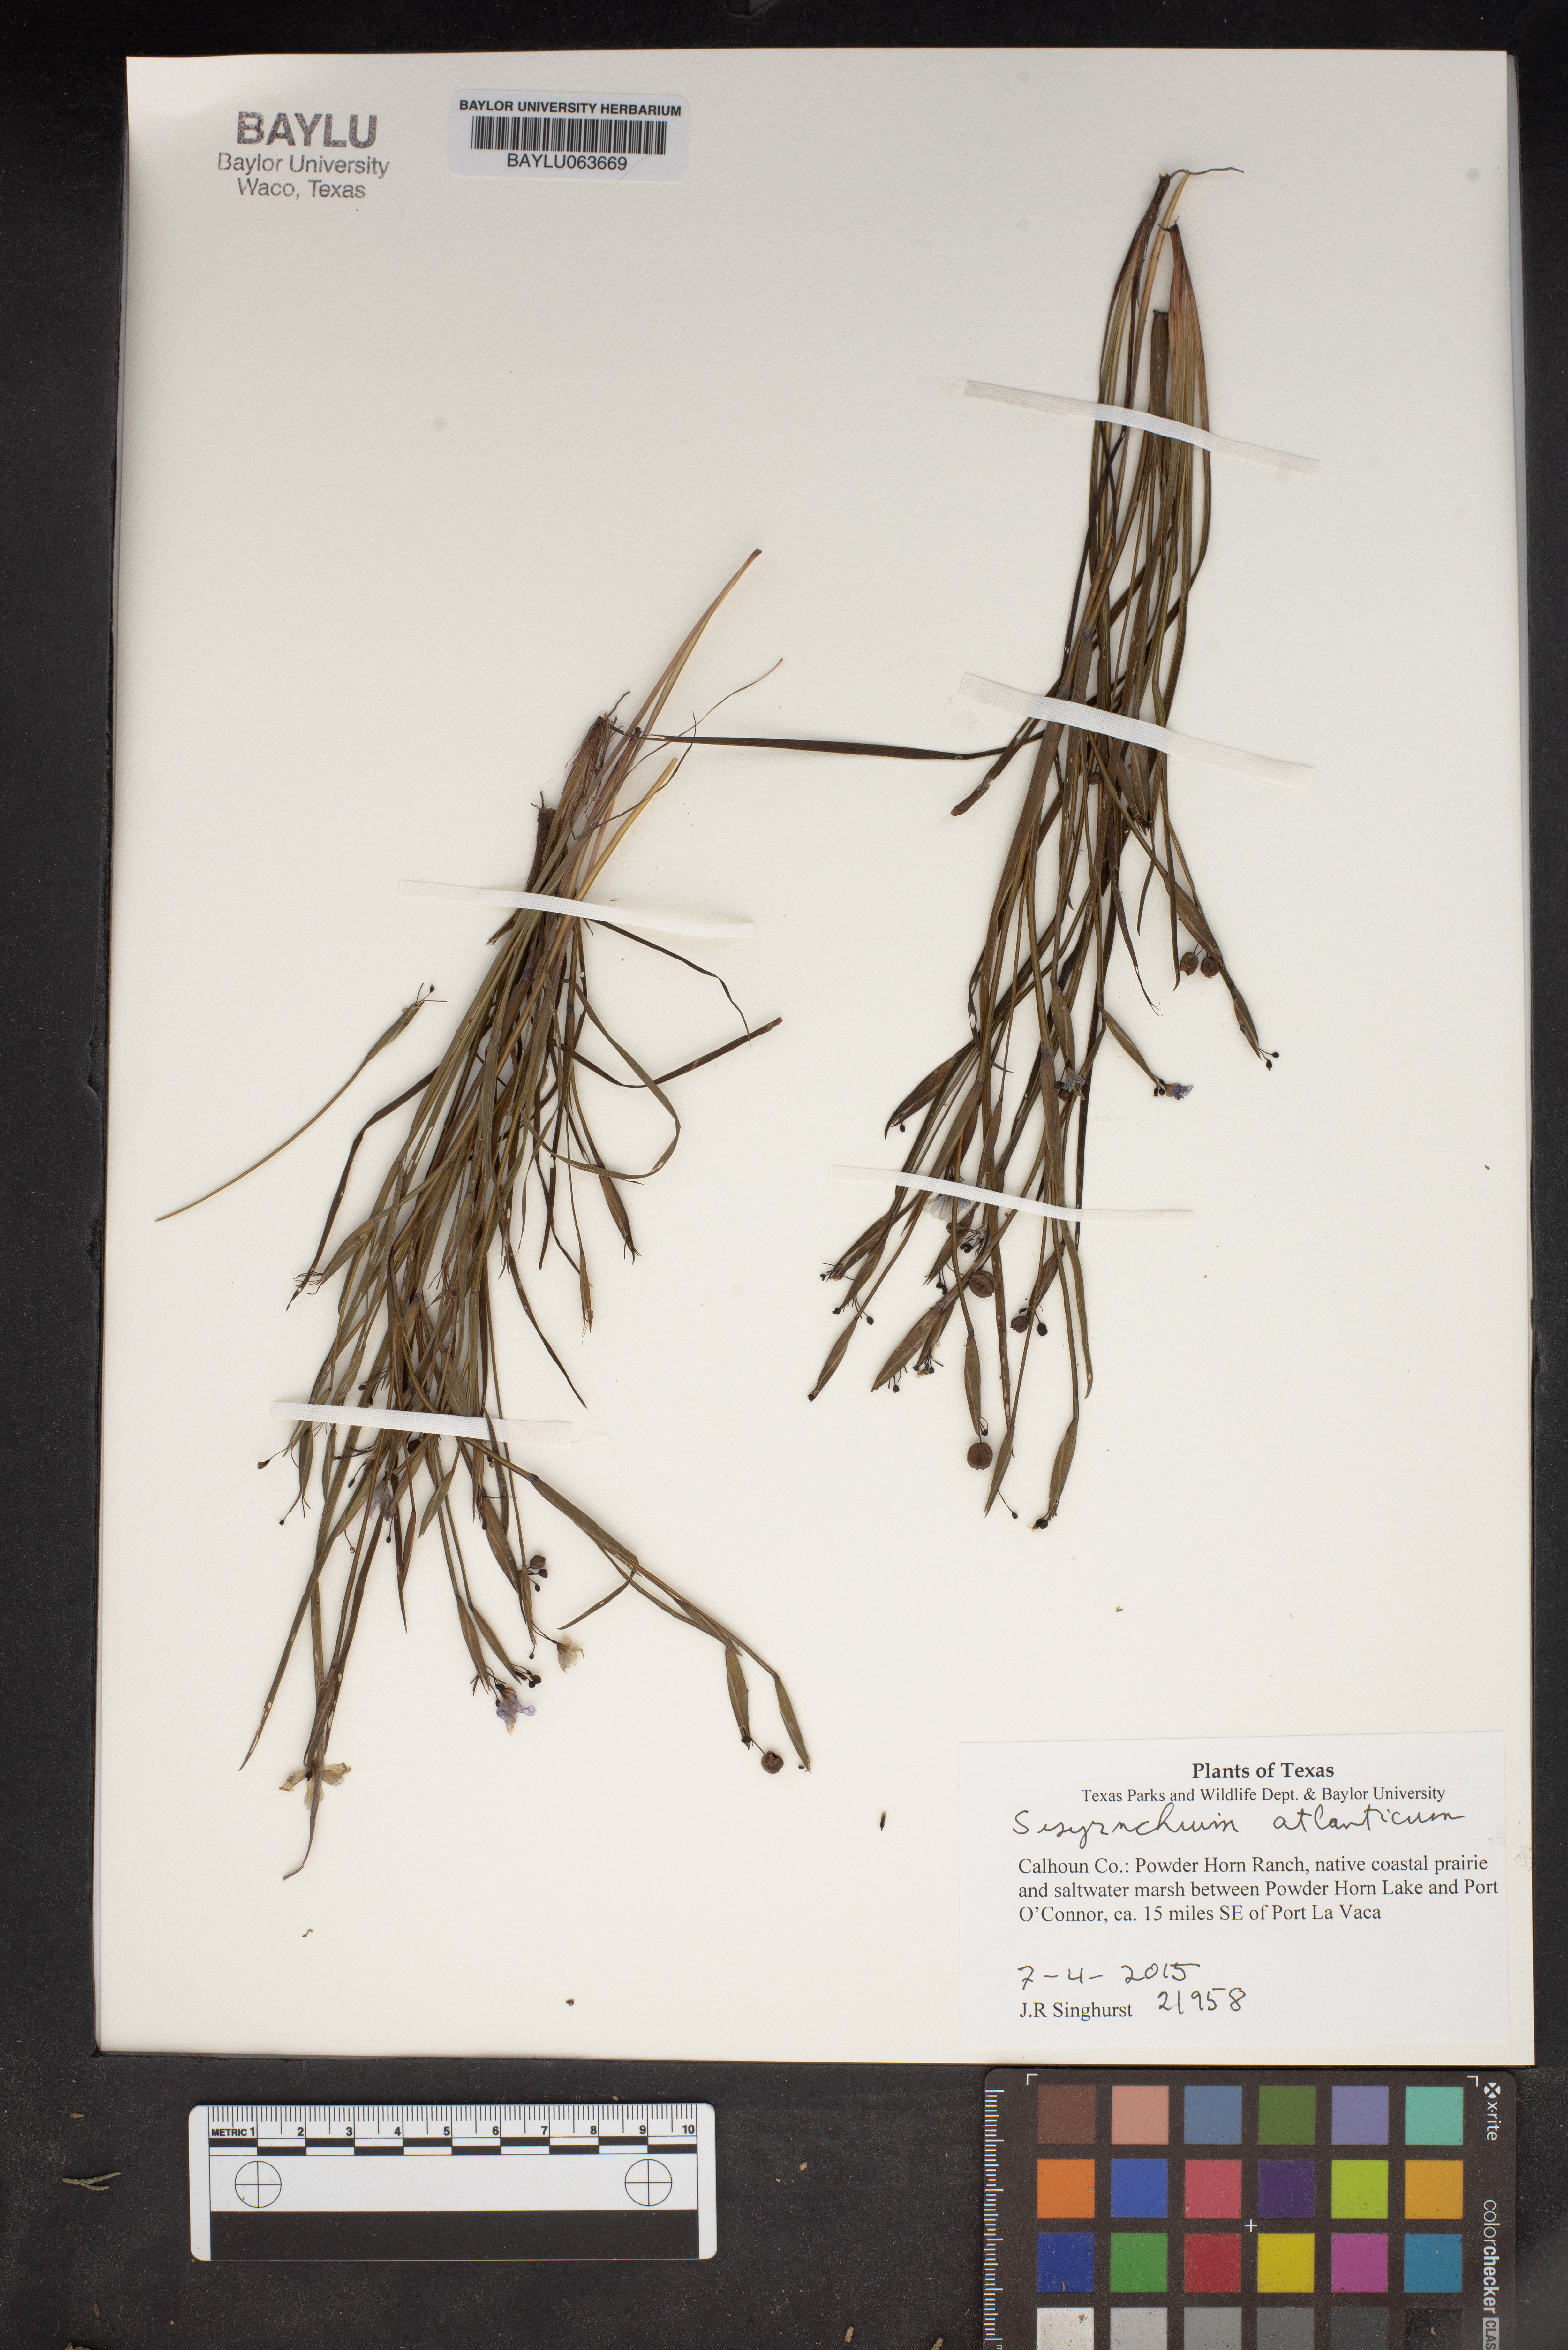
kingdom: Plantae
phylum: Tracheophyta
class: Liliopsida
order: Asparagales
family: Iridaceae
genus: Sisyrinchium
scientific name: Sisyrinchium atlanticum
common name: Eastern blue-eyed-grass
